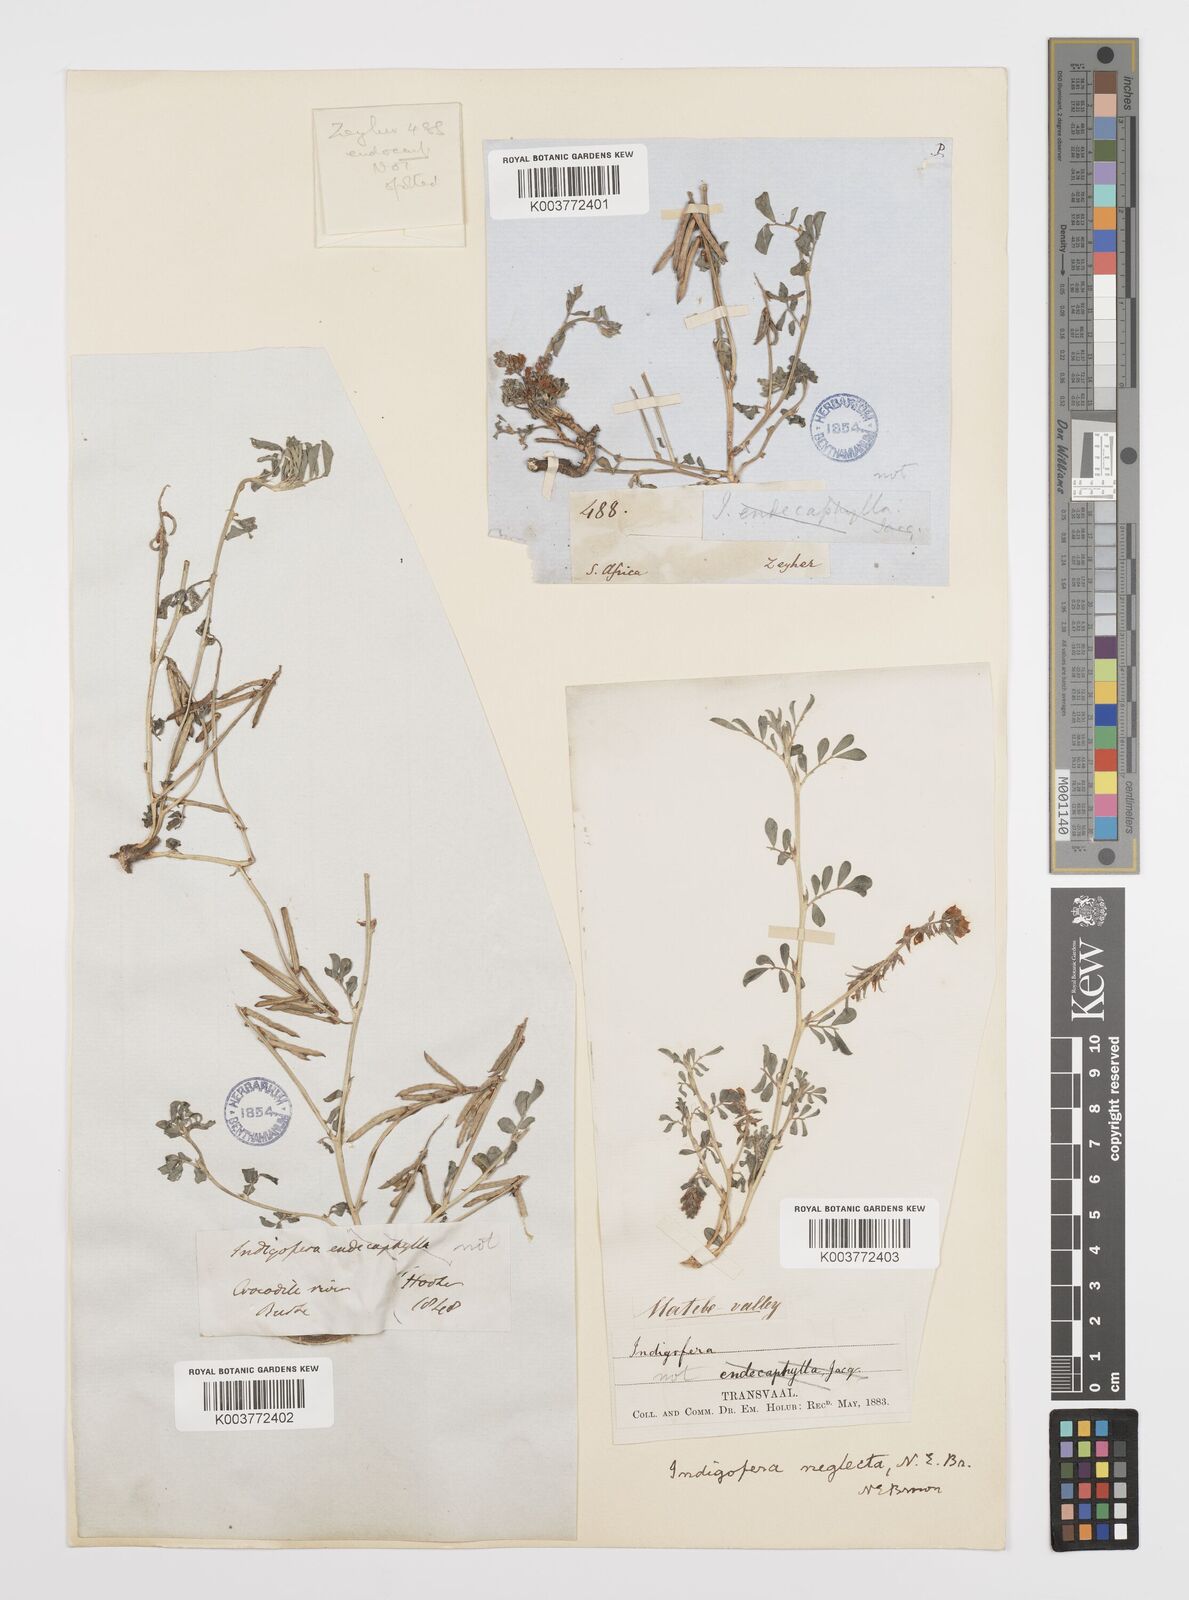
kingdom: Plantae
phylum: Tracheophyta
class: Magnoliopsida
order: Fabales
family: Fabaceae
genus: Indigofera
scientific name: Indigofera spicata
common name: Creeping indigo
